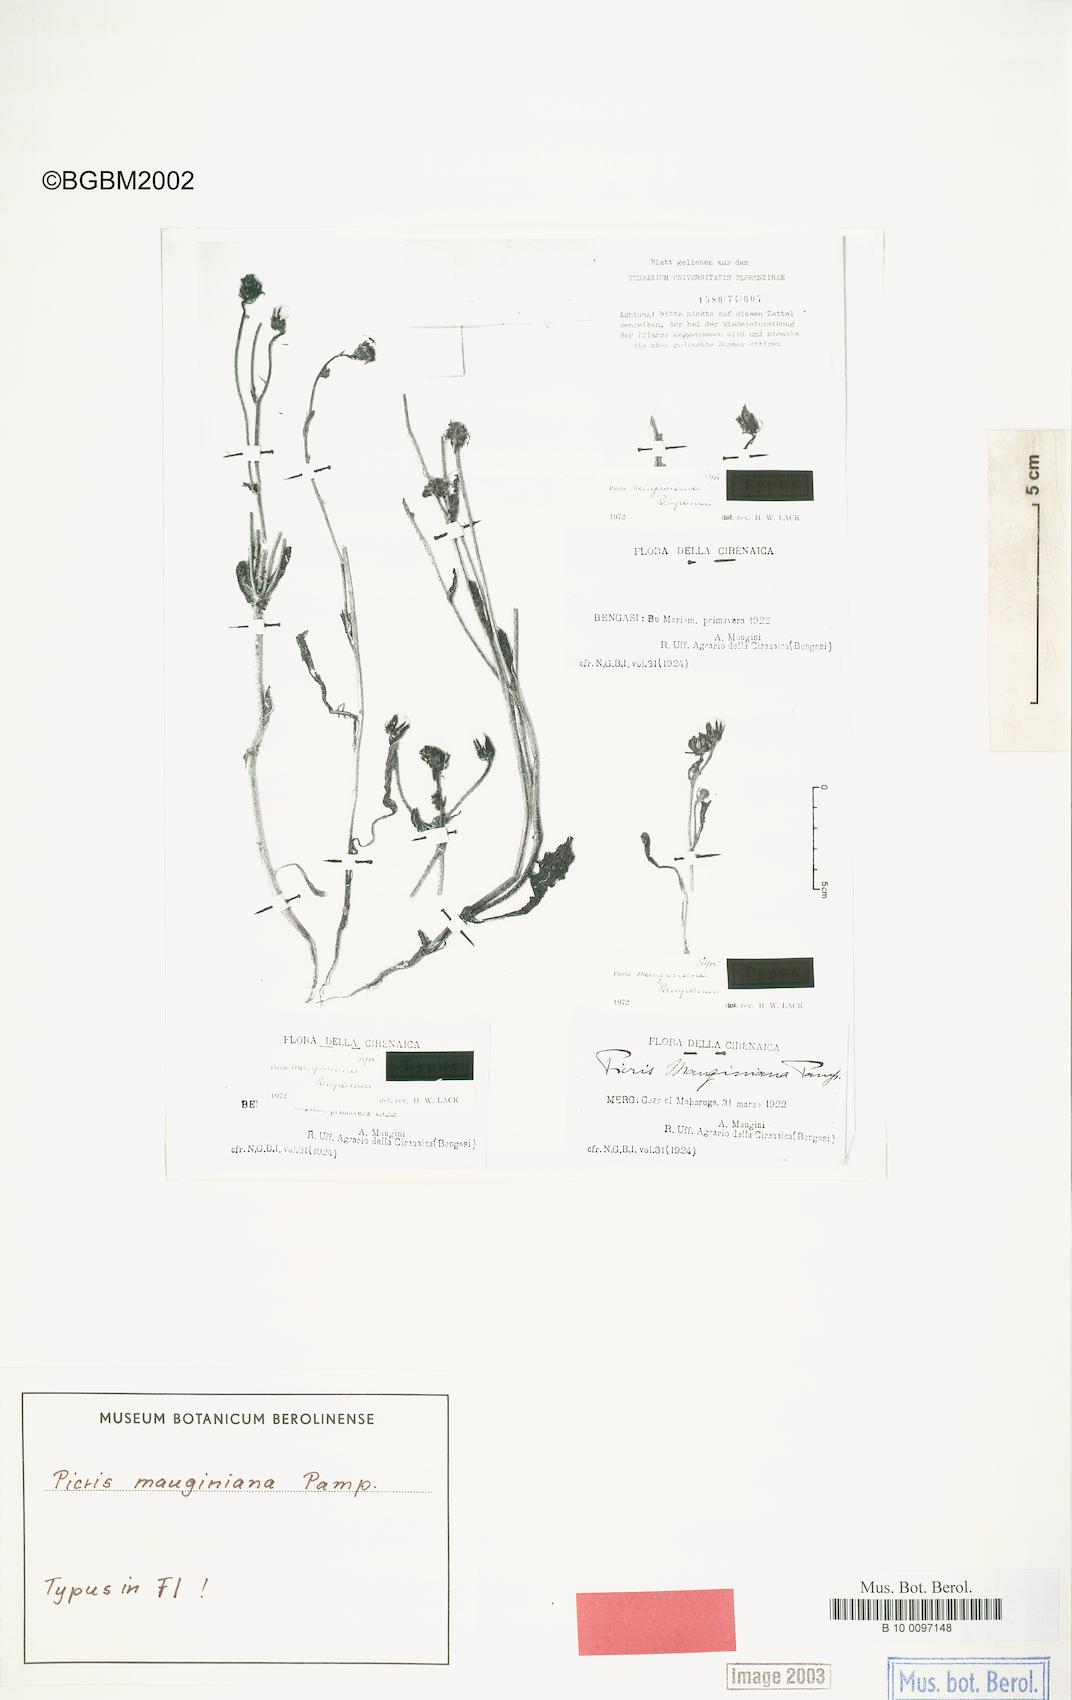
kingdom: Plantae
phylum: Tracheophyta
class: Magnoliopsida
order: Asterales
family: Asteraceae
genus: Picris
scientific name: Picris mauginiana
